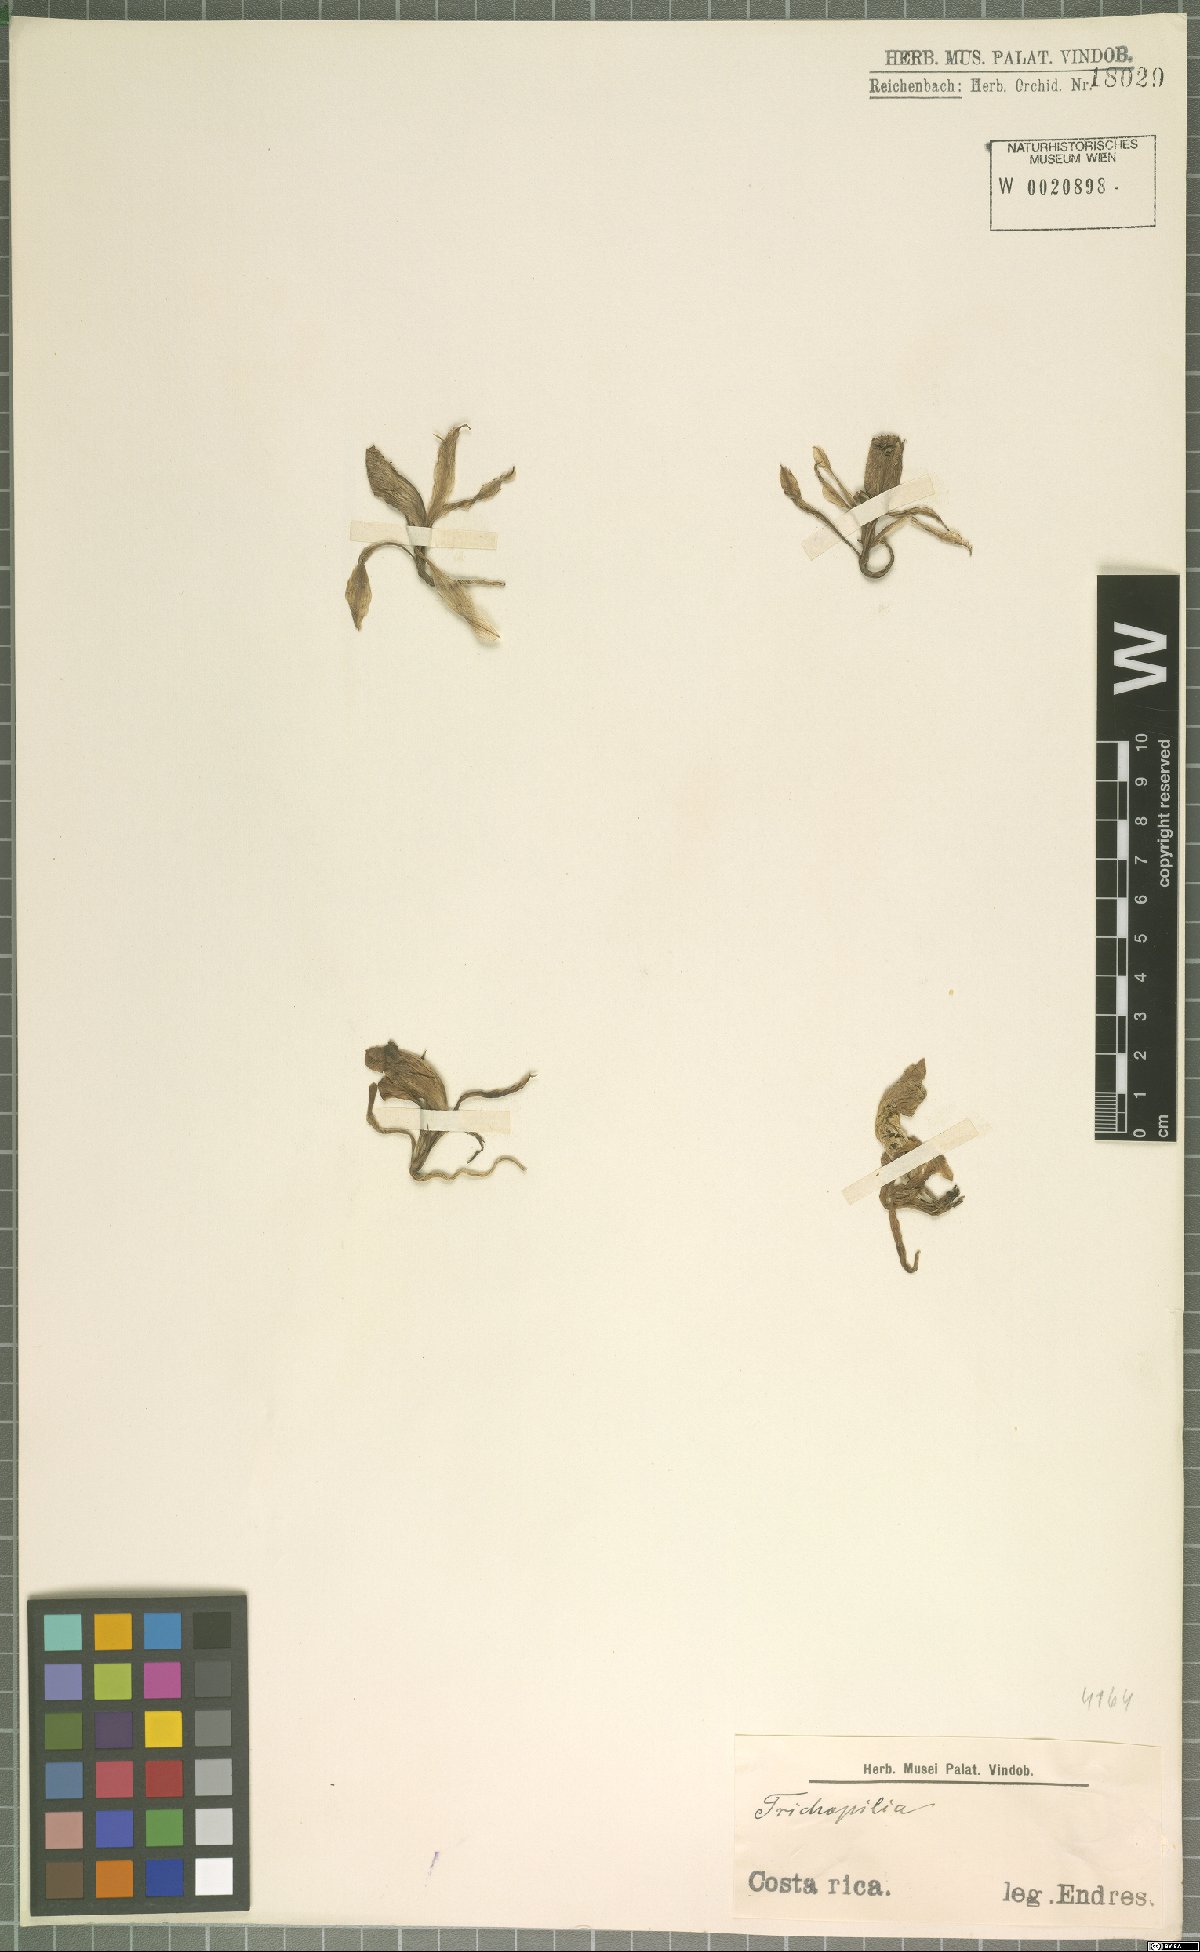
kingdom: Plantae
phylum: Tracheophyta
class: Liliopsida
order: Asparagales
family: Orchidaceae
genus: Trichopilia
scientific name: Trichopilia
